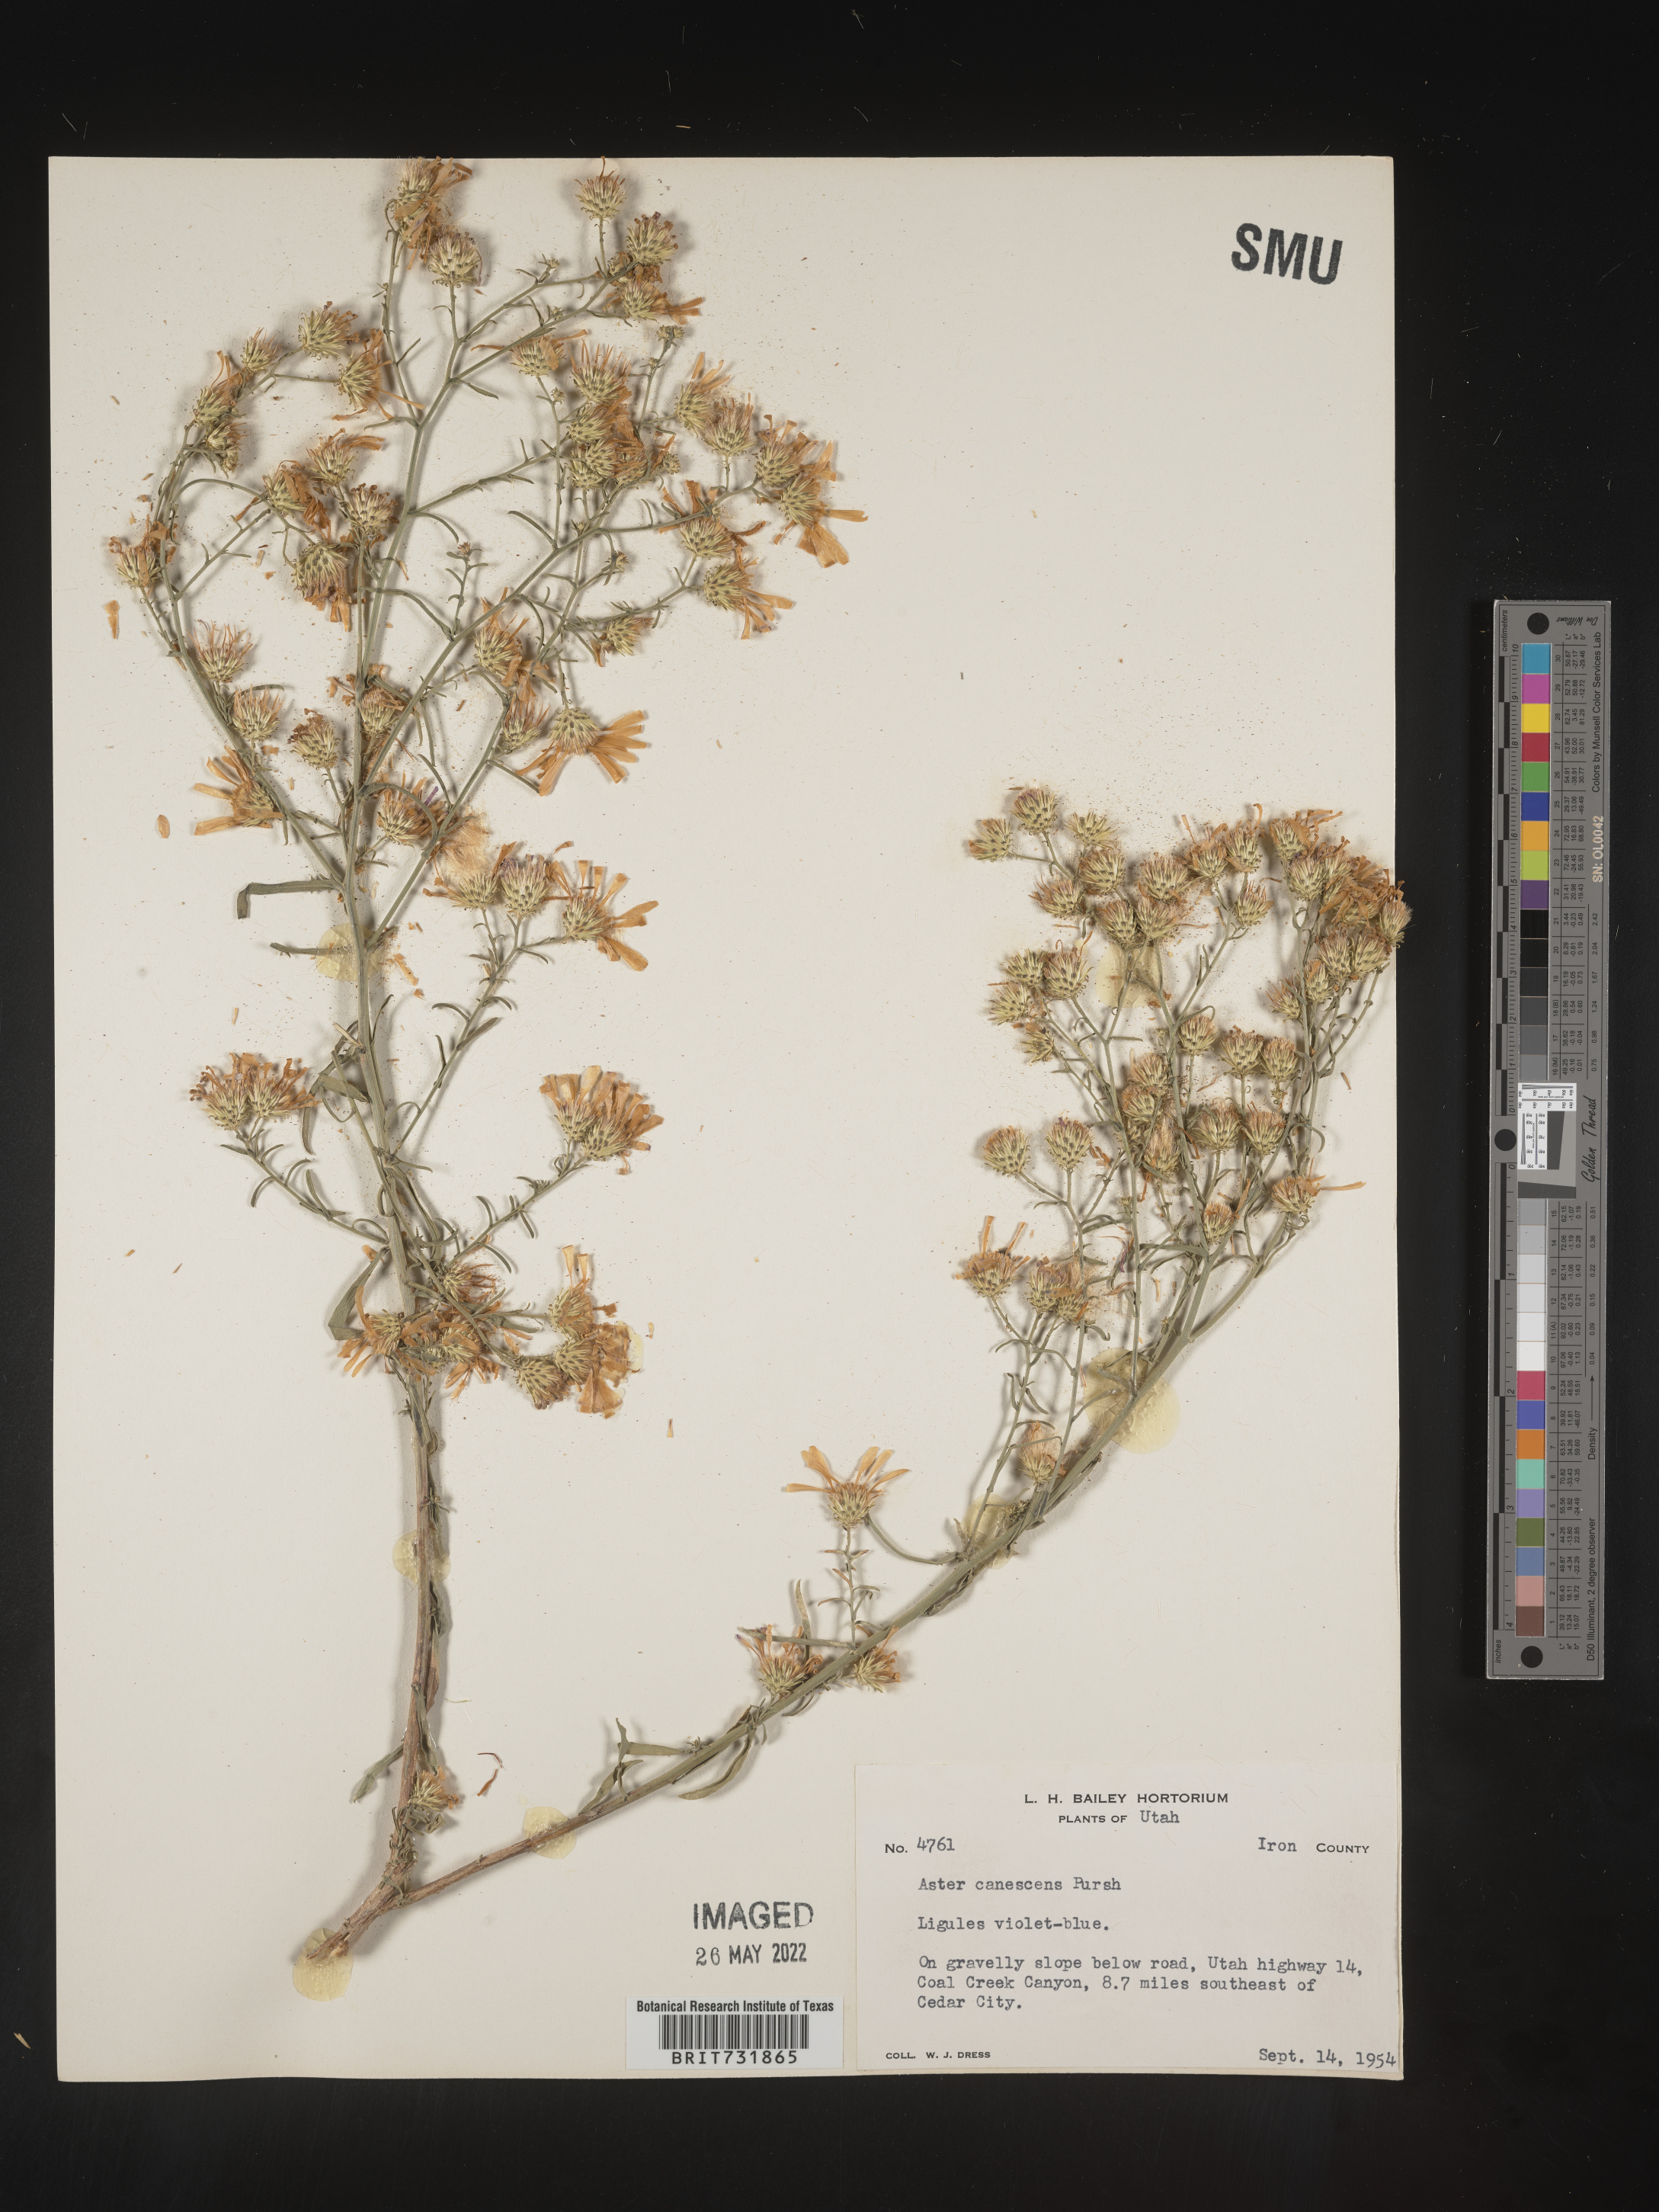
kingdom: Plantae
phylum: Tracheophyta
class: Magnoliopsida
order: Asterales
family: Asteraceae
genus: Dieteria
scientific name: Dieteria canescens
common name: Hoary-aster
